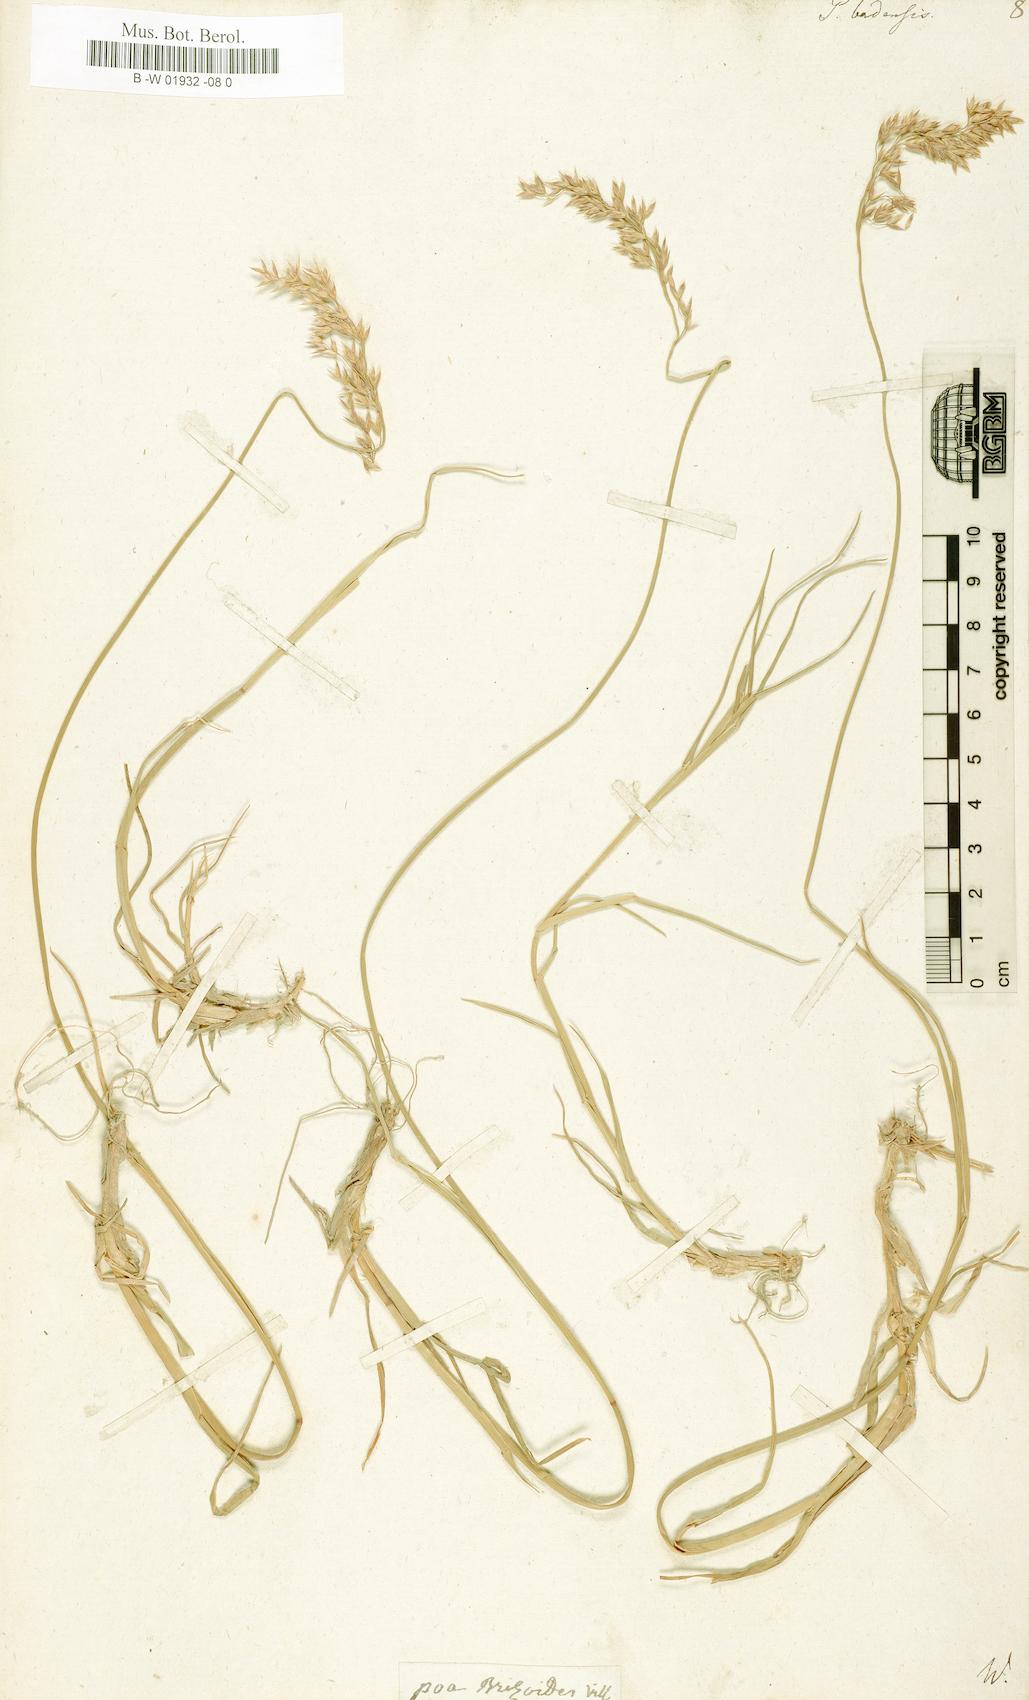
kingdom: Plantae
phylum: Tracheophyta
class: Liliopsida
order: Poales
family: Poaceae
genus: Poa
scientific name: Poa badensis
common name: Baden's bluegrass
